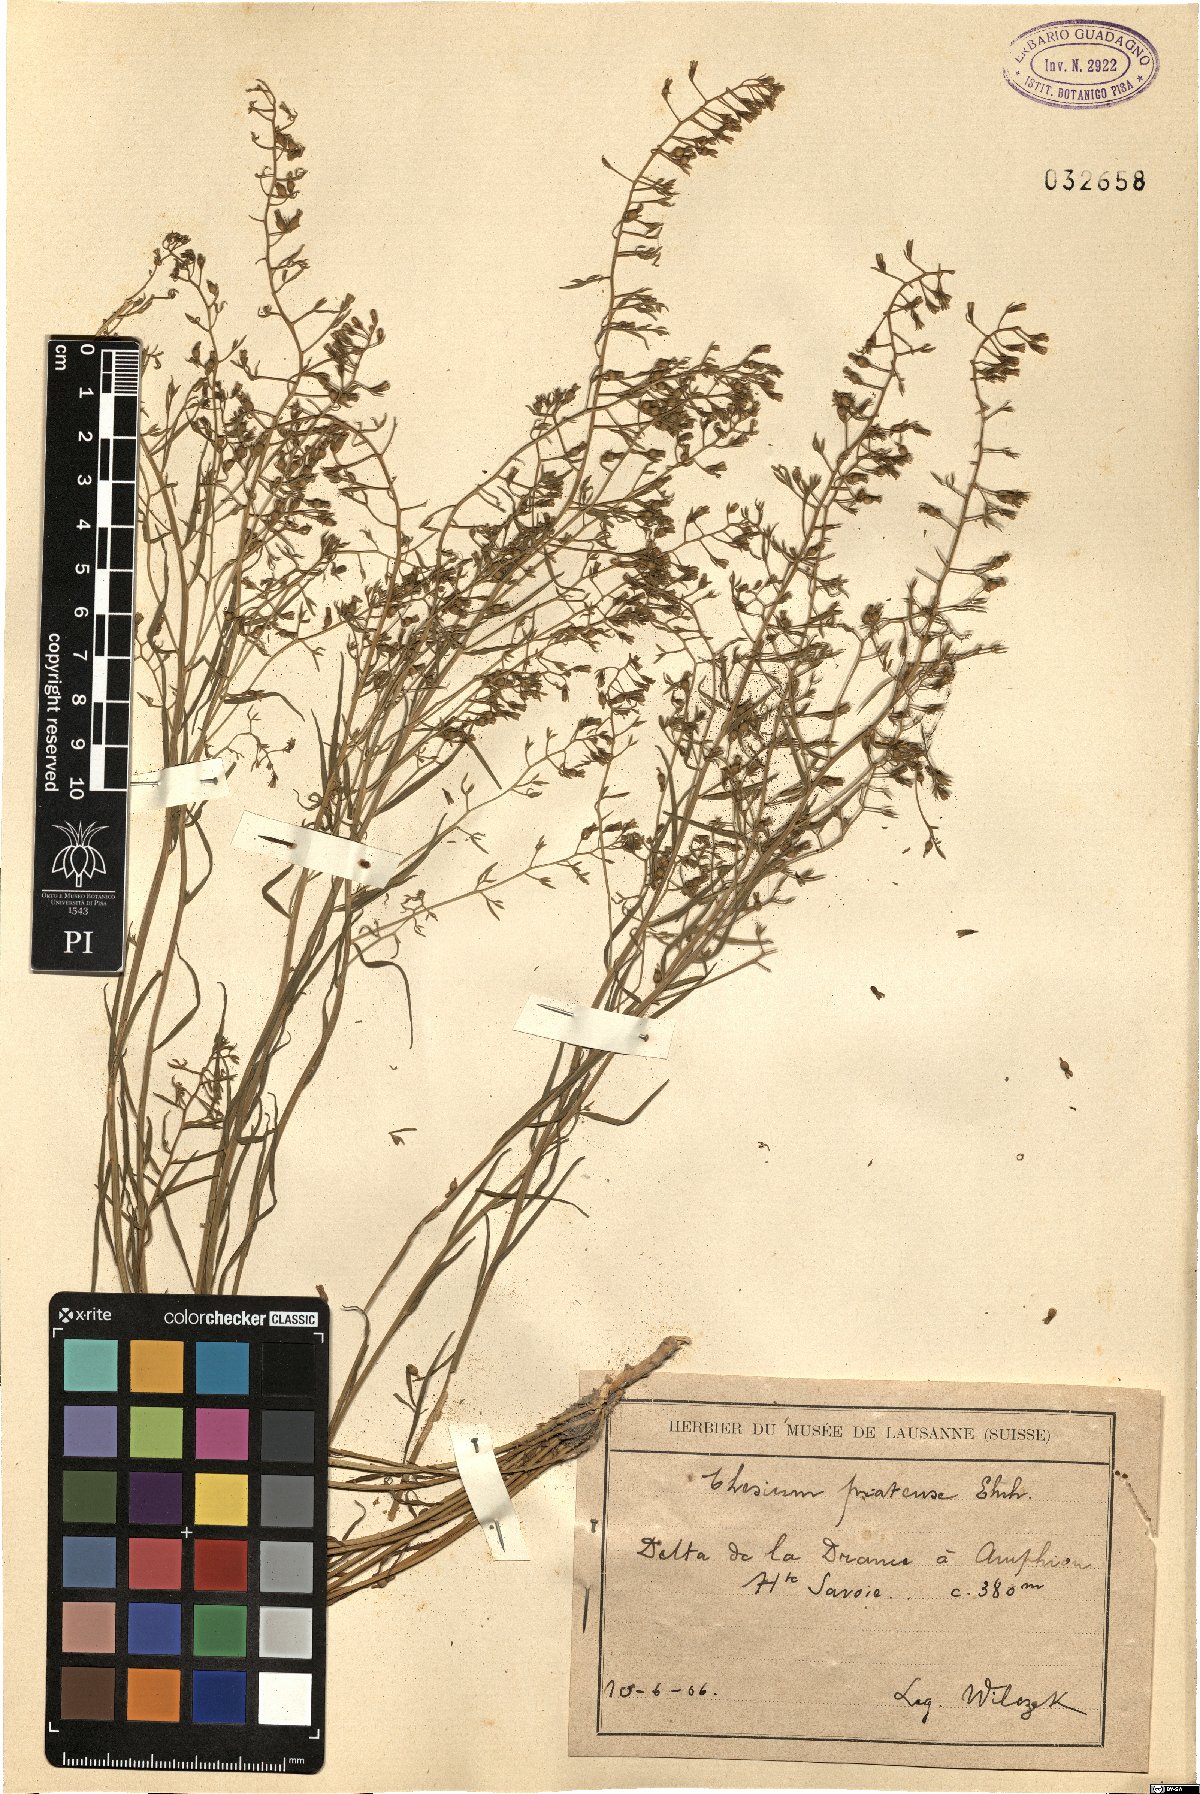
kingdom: Plantae
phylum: Tracheophyta
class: Magnoliopsida
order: Santalales
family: Thesiaceae
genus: Thesium
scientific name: Thesium pyrenaicum
